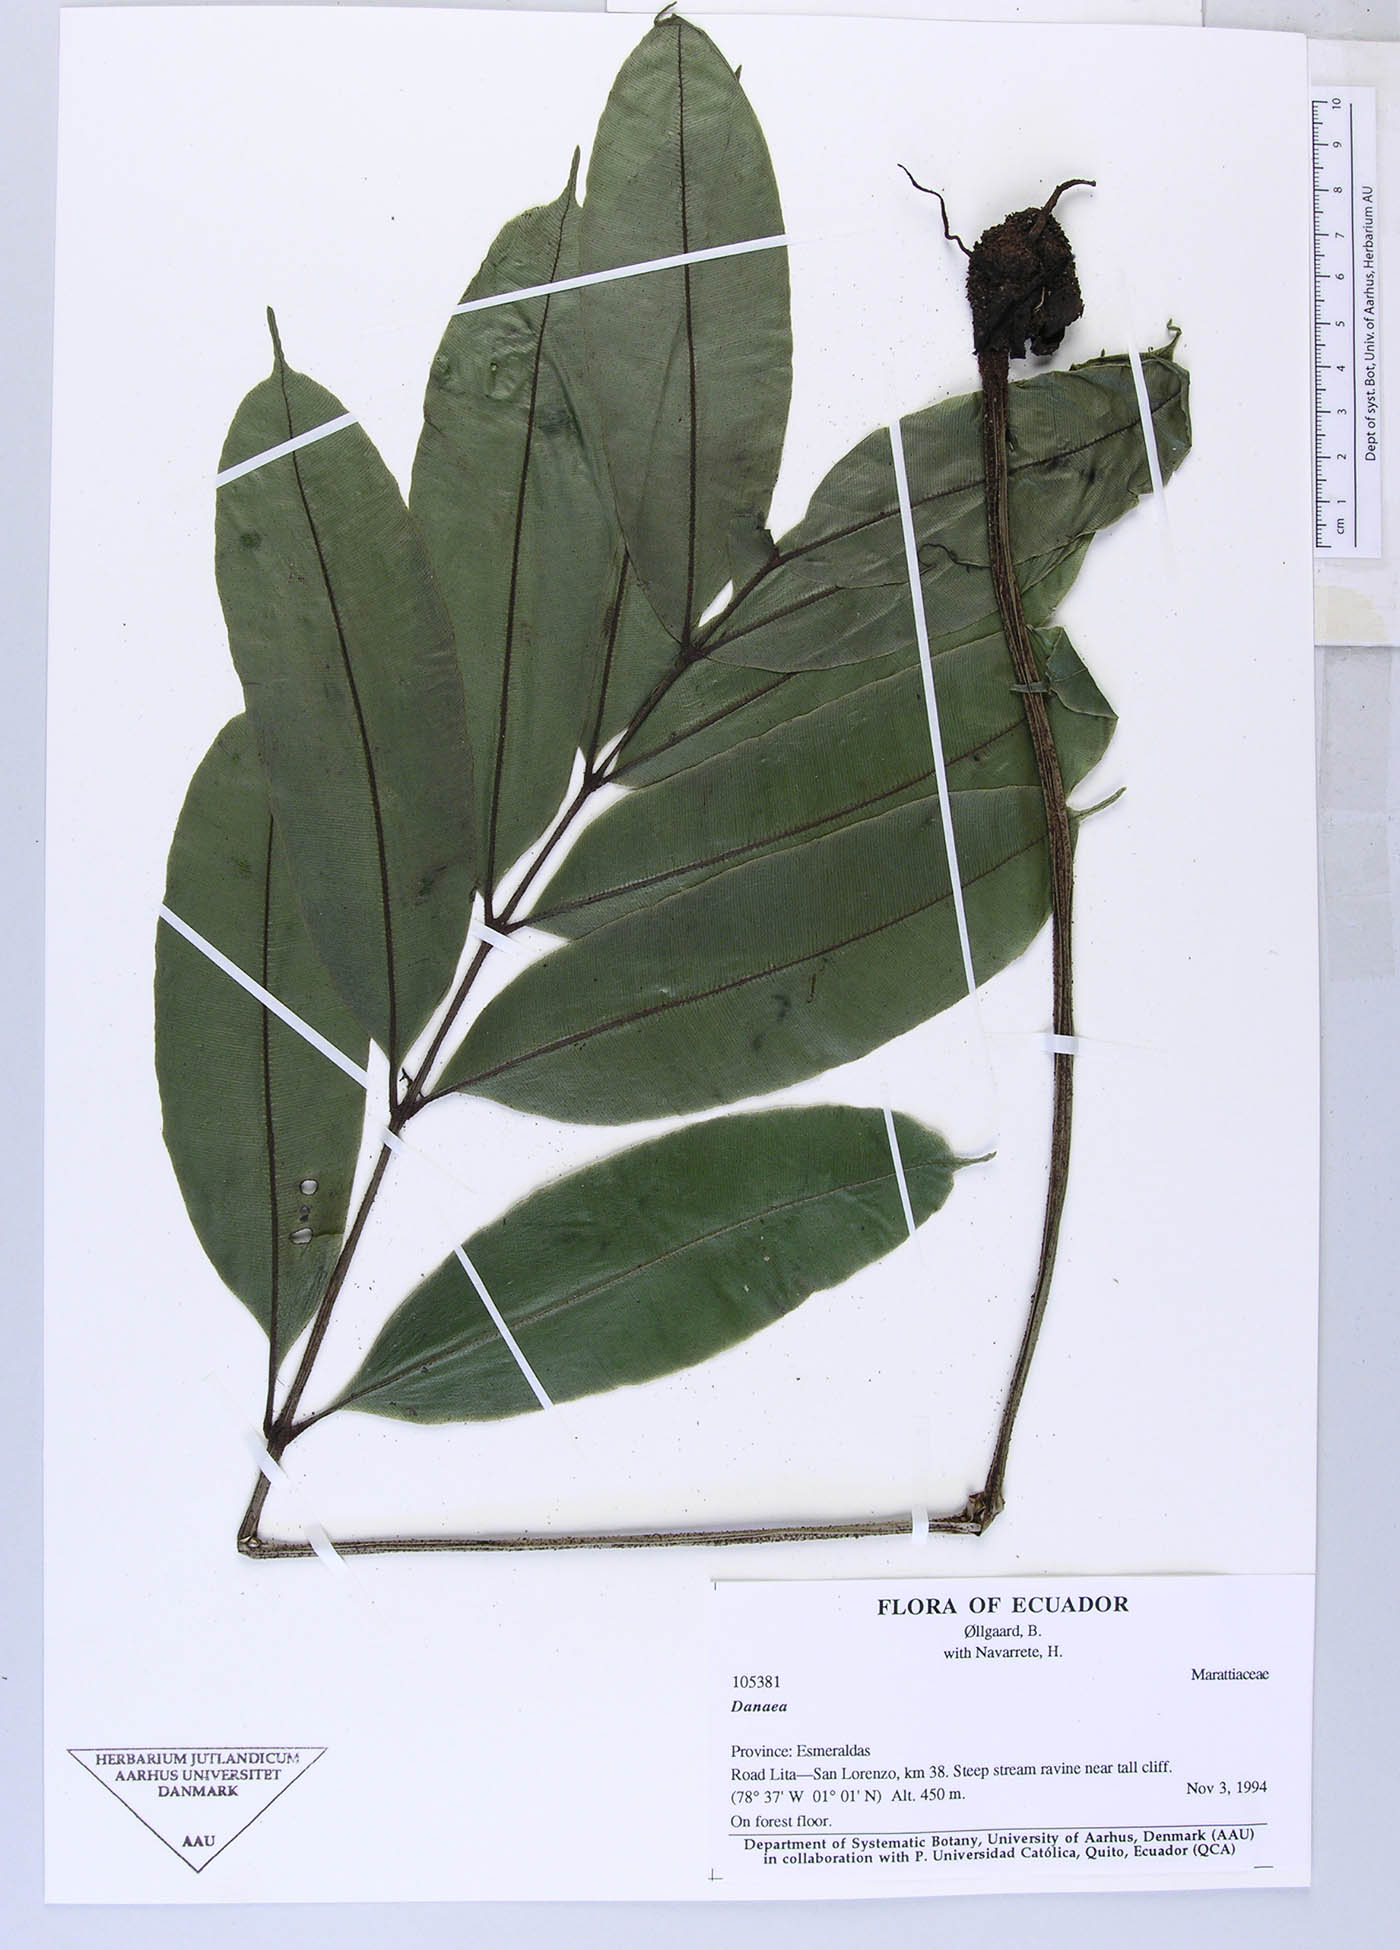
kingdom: Plantae
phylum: Tracheophyta
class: Polypodiopsida
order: Marattiales
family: Marattiaceae
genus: Danaea
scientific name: Danaea
